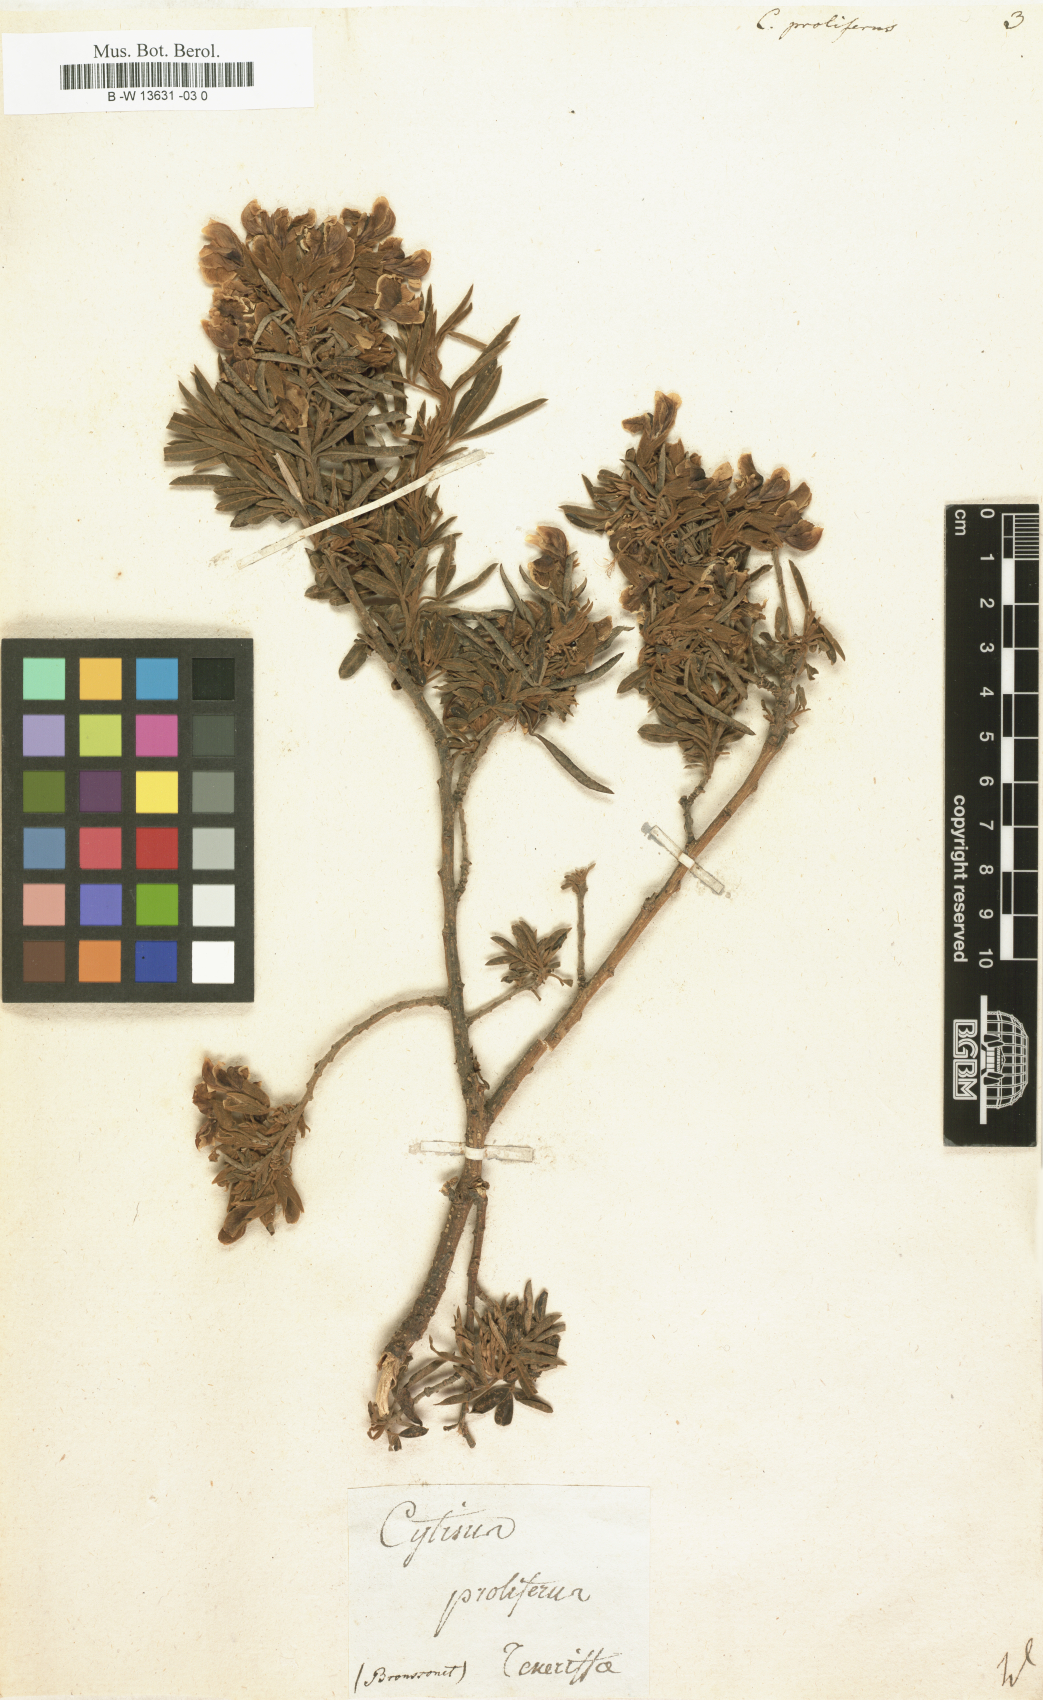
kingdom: Plantae
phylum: Tracheophyta
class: Magnoliopsida
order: Fabales
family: Fabaceae
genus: Cytisus
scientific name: Cytisus proliferus
